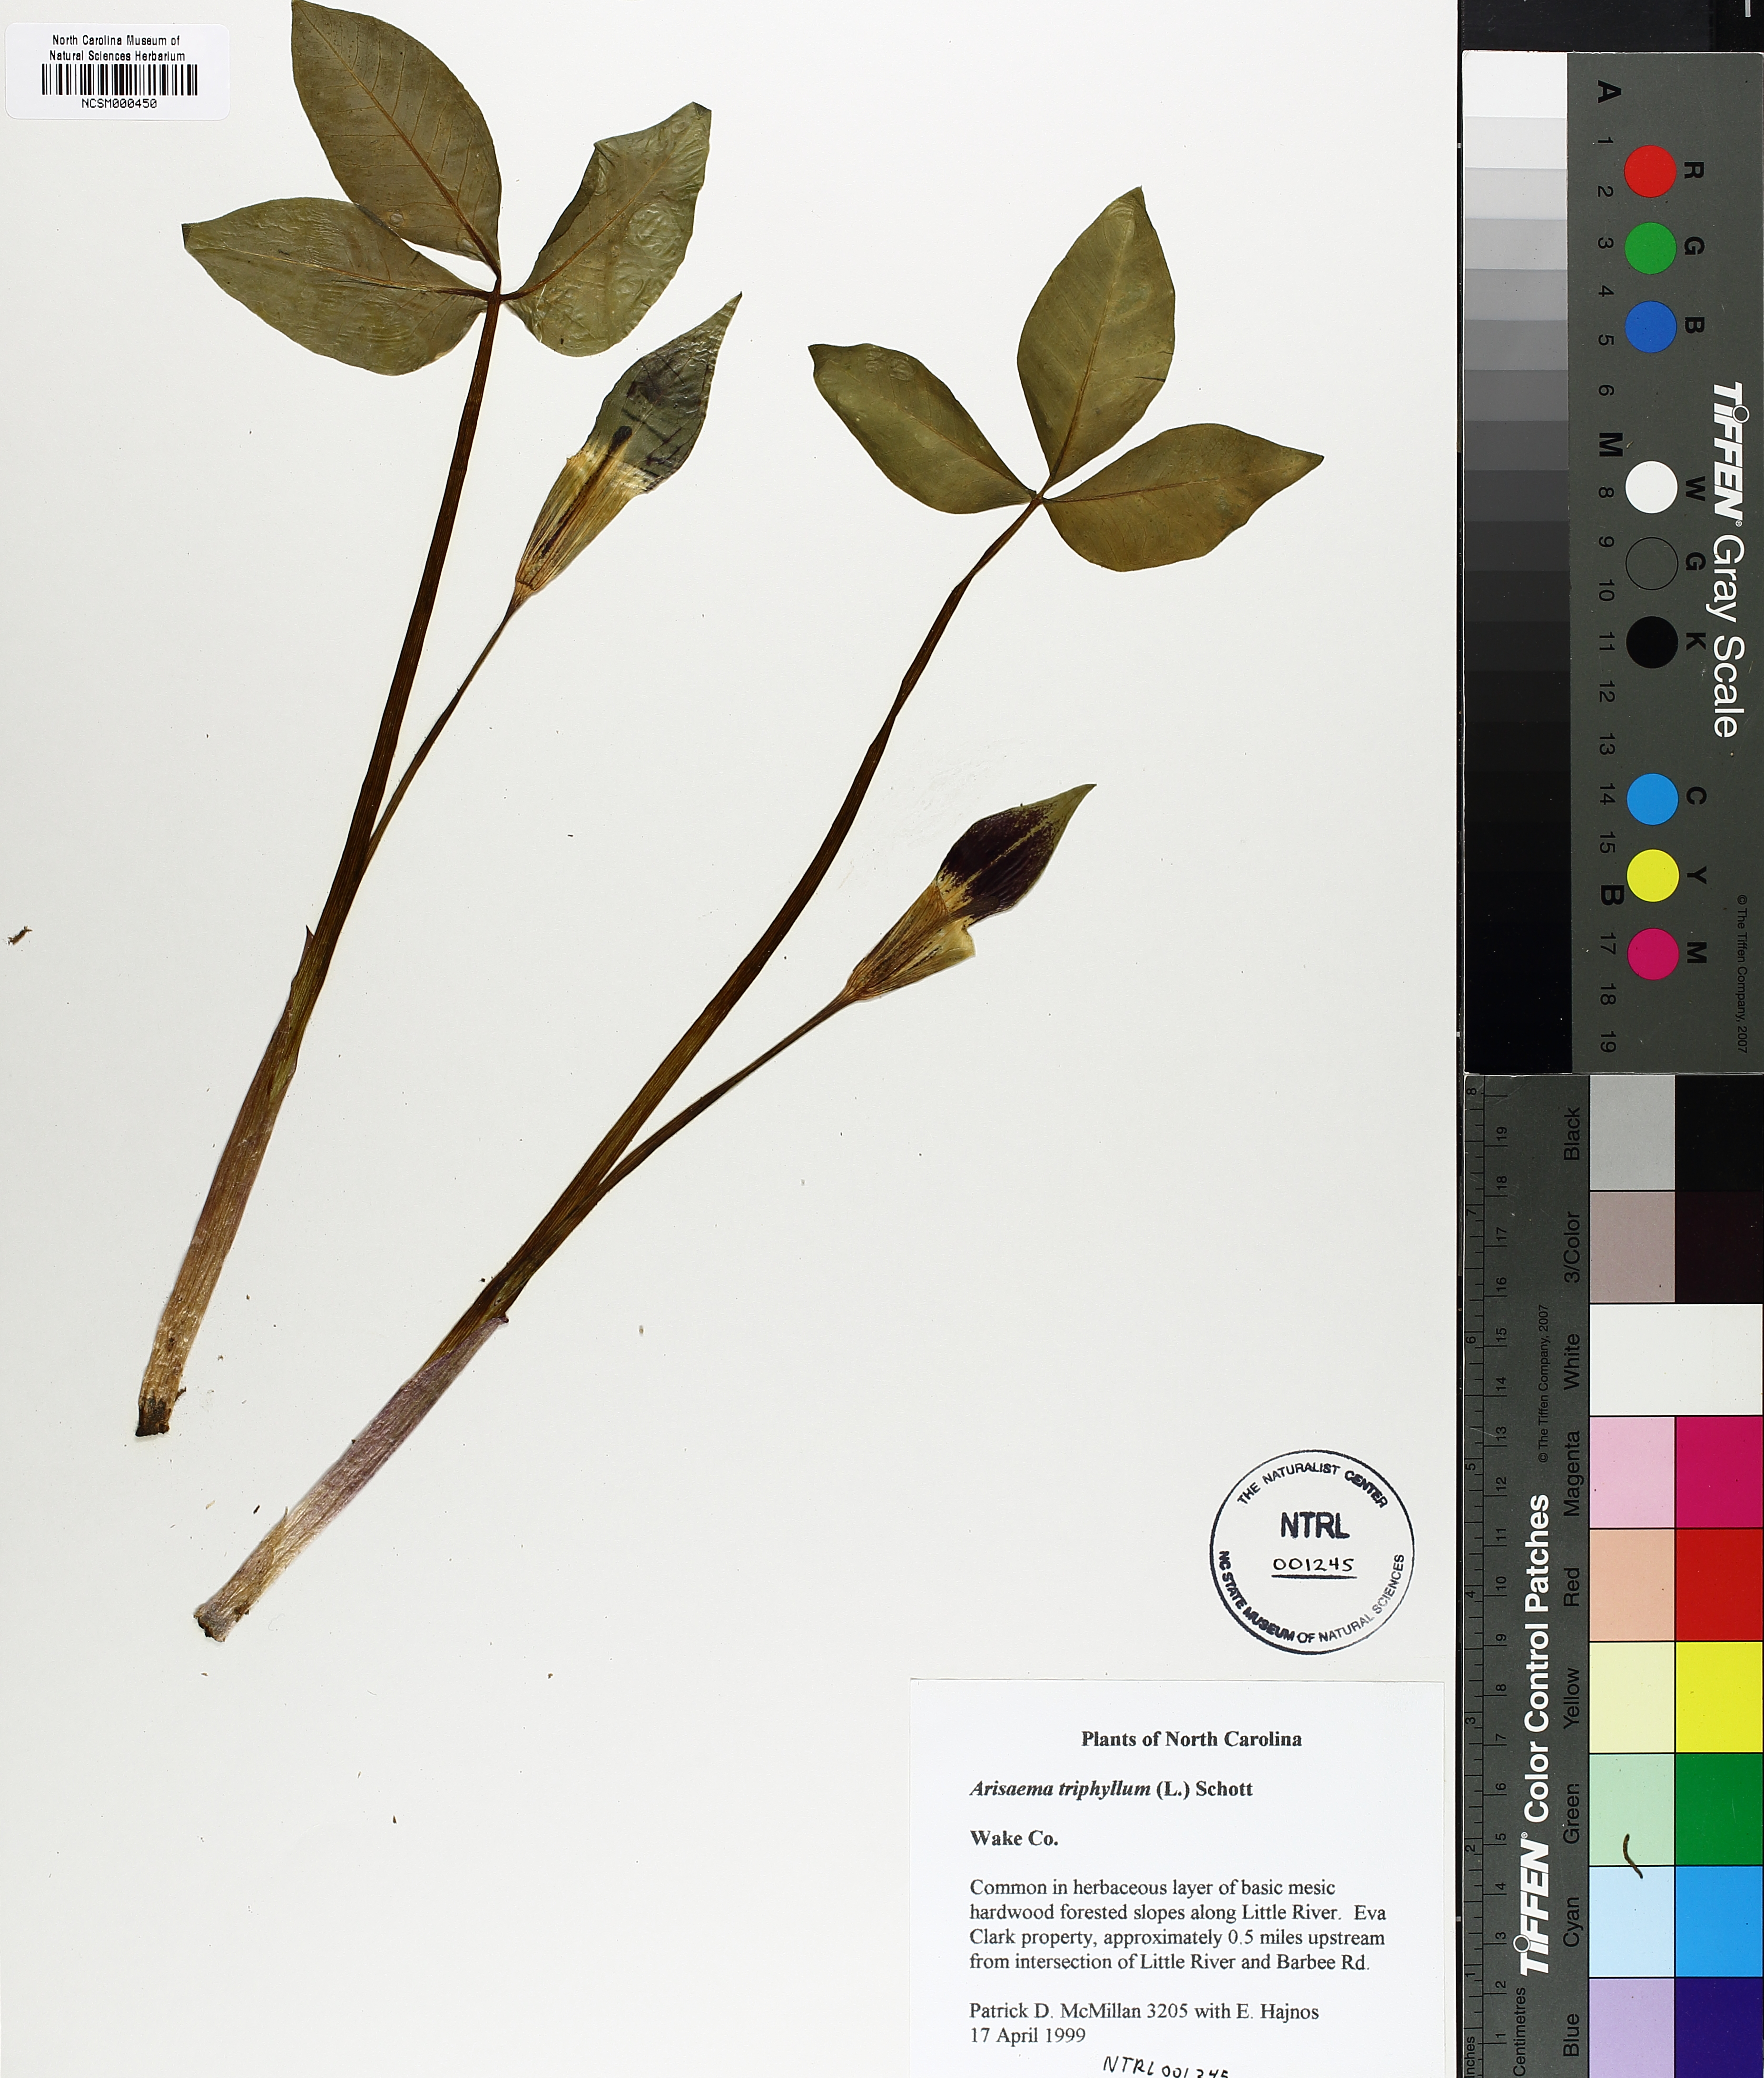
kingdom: Plantae
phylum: Tracheophyta
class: Liliopsida
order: Alismatales
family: Araceae
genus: Arisaema
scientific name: Arisaema triphyllum
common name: Jack-in-the-pulpit
